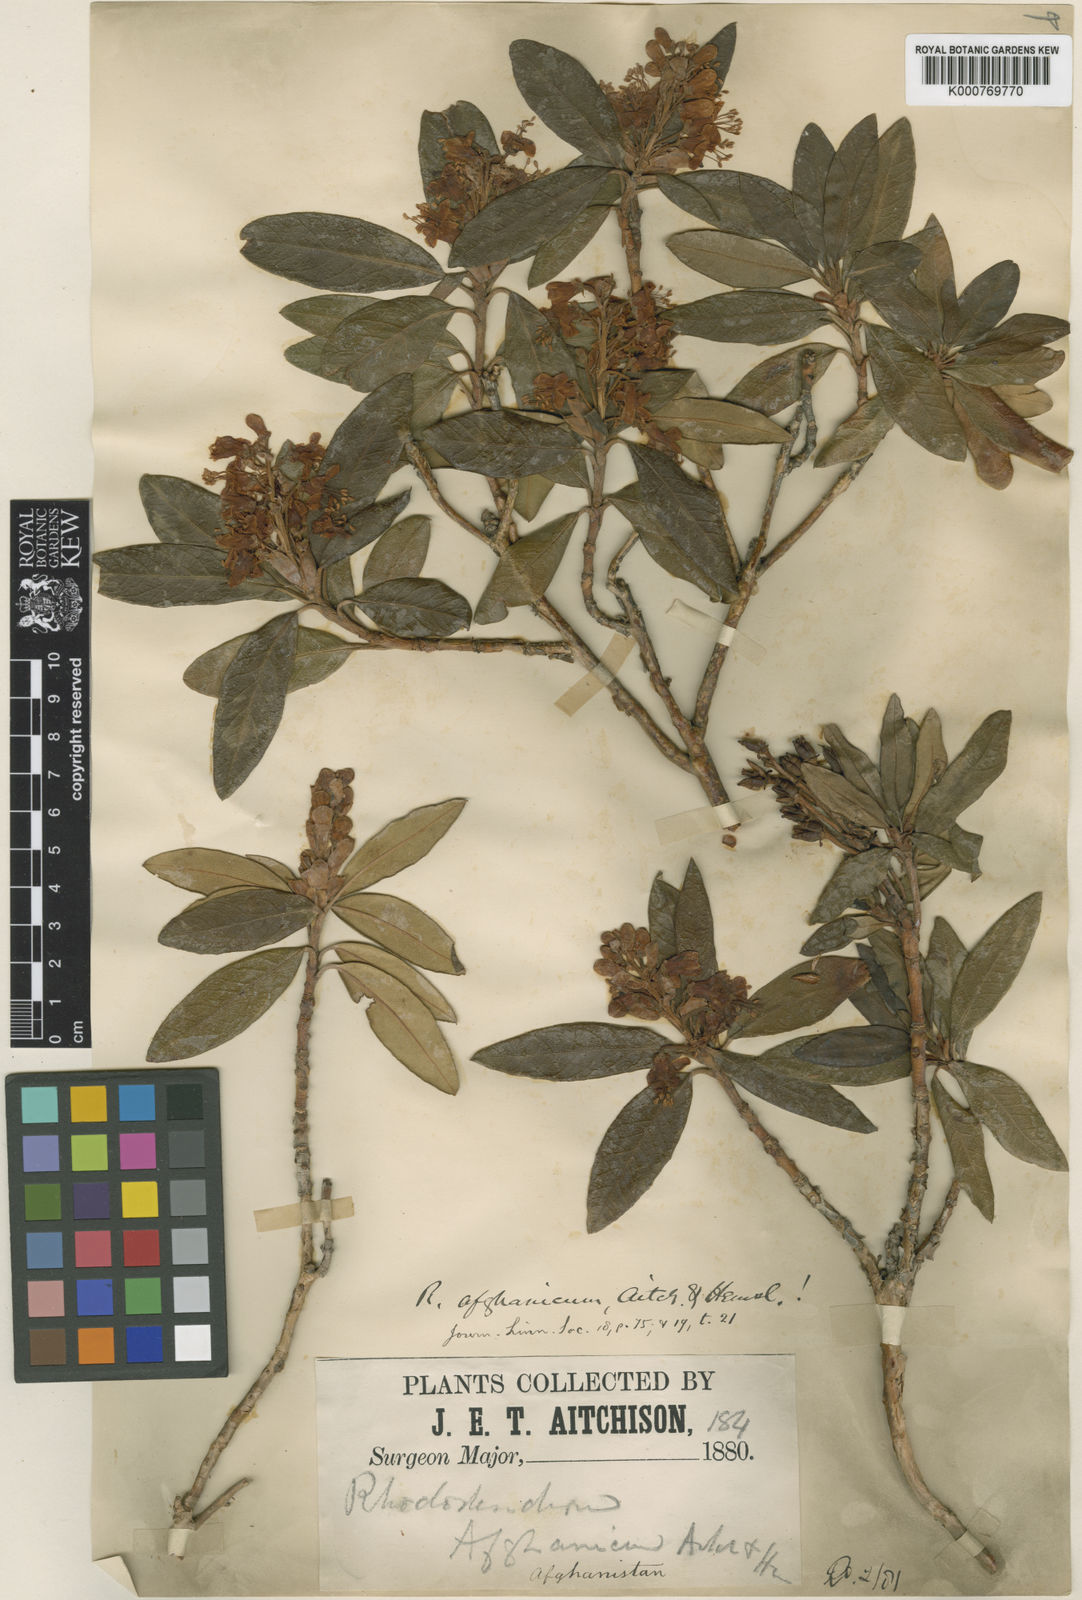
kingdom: Plantae
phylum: Tracheophyta
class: Magnoliopsida
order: Ericales
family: Ericaceae
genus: Rhododendron
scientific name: Rhododendron afghanicum
